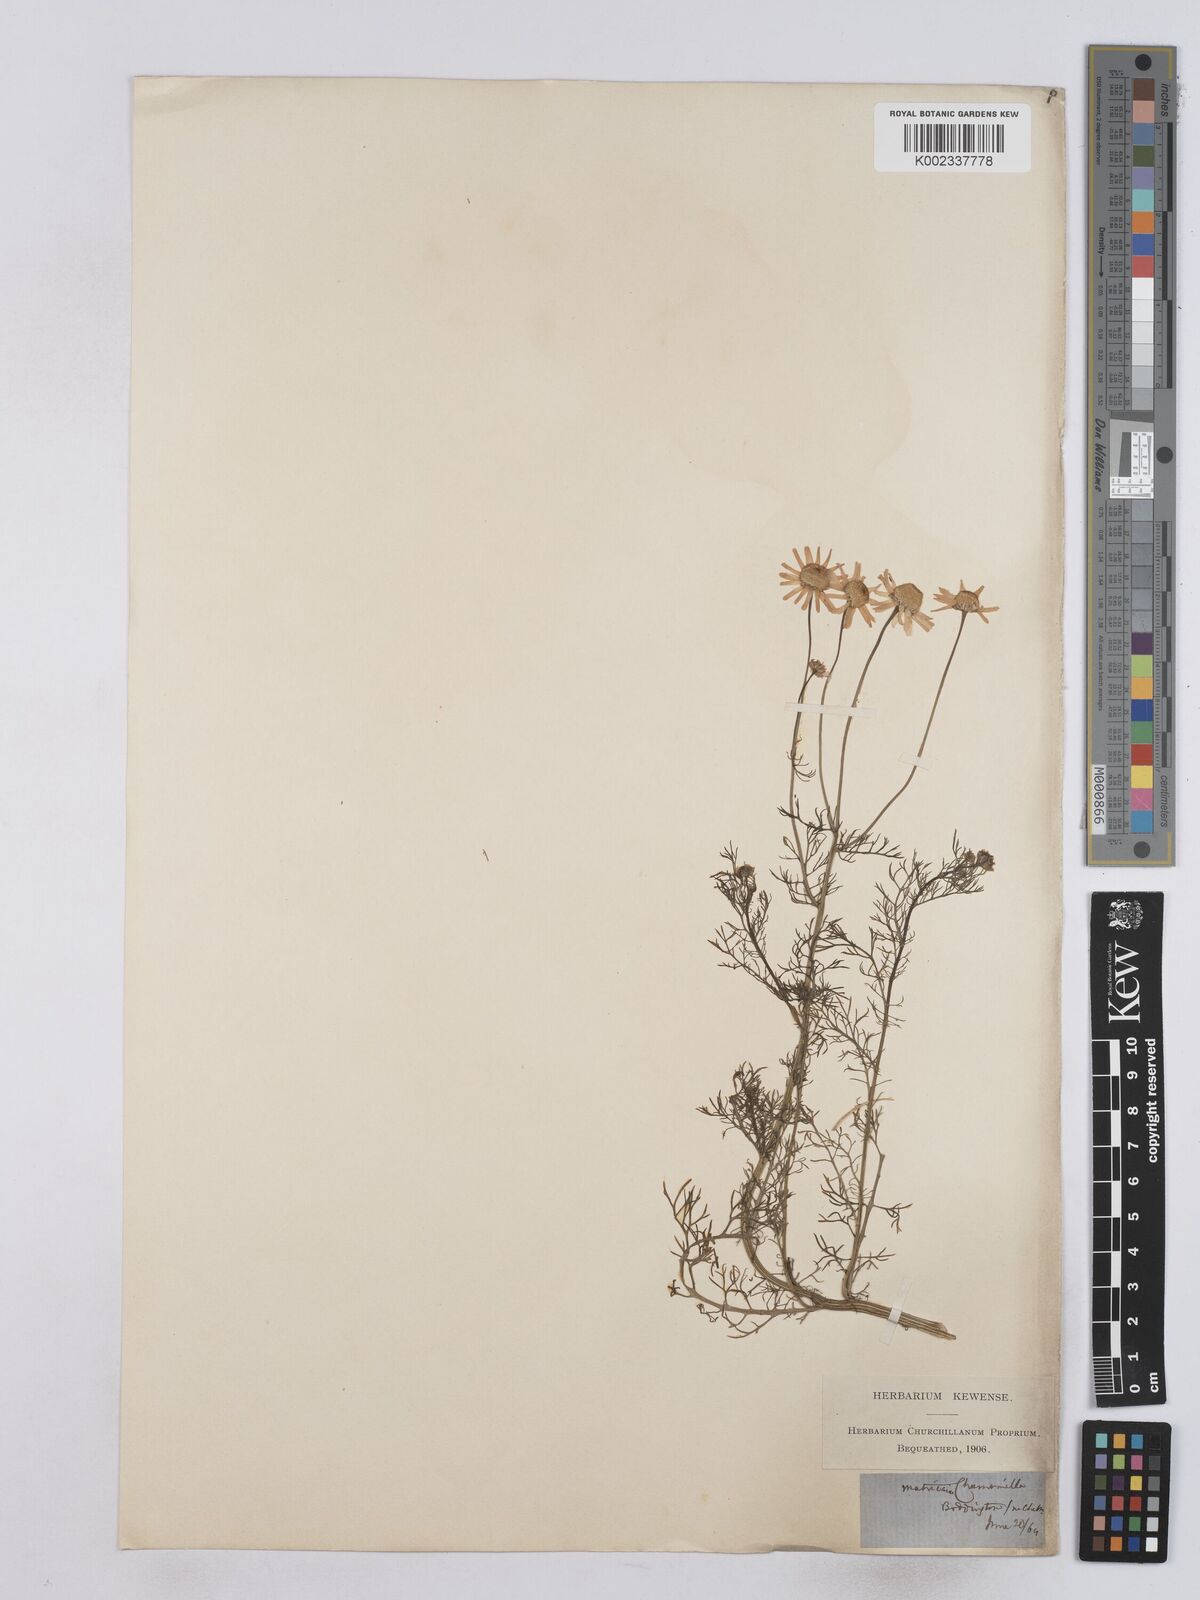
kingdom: Plantae
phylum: Tracheophyta
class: Magnoliopsida
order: Asterales
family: Asteraceae
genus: Matricaria
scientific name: Matricaria chamomilla
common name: Scented mayweed
